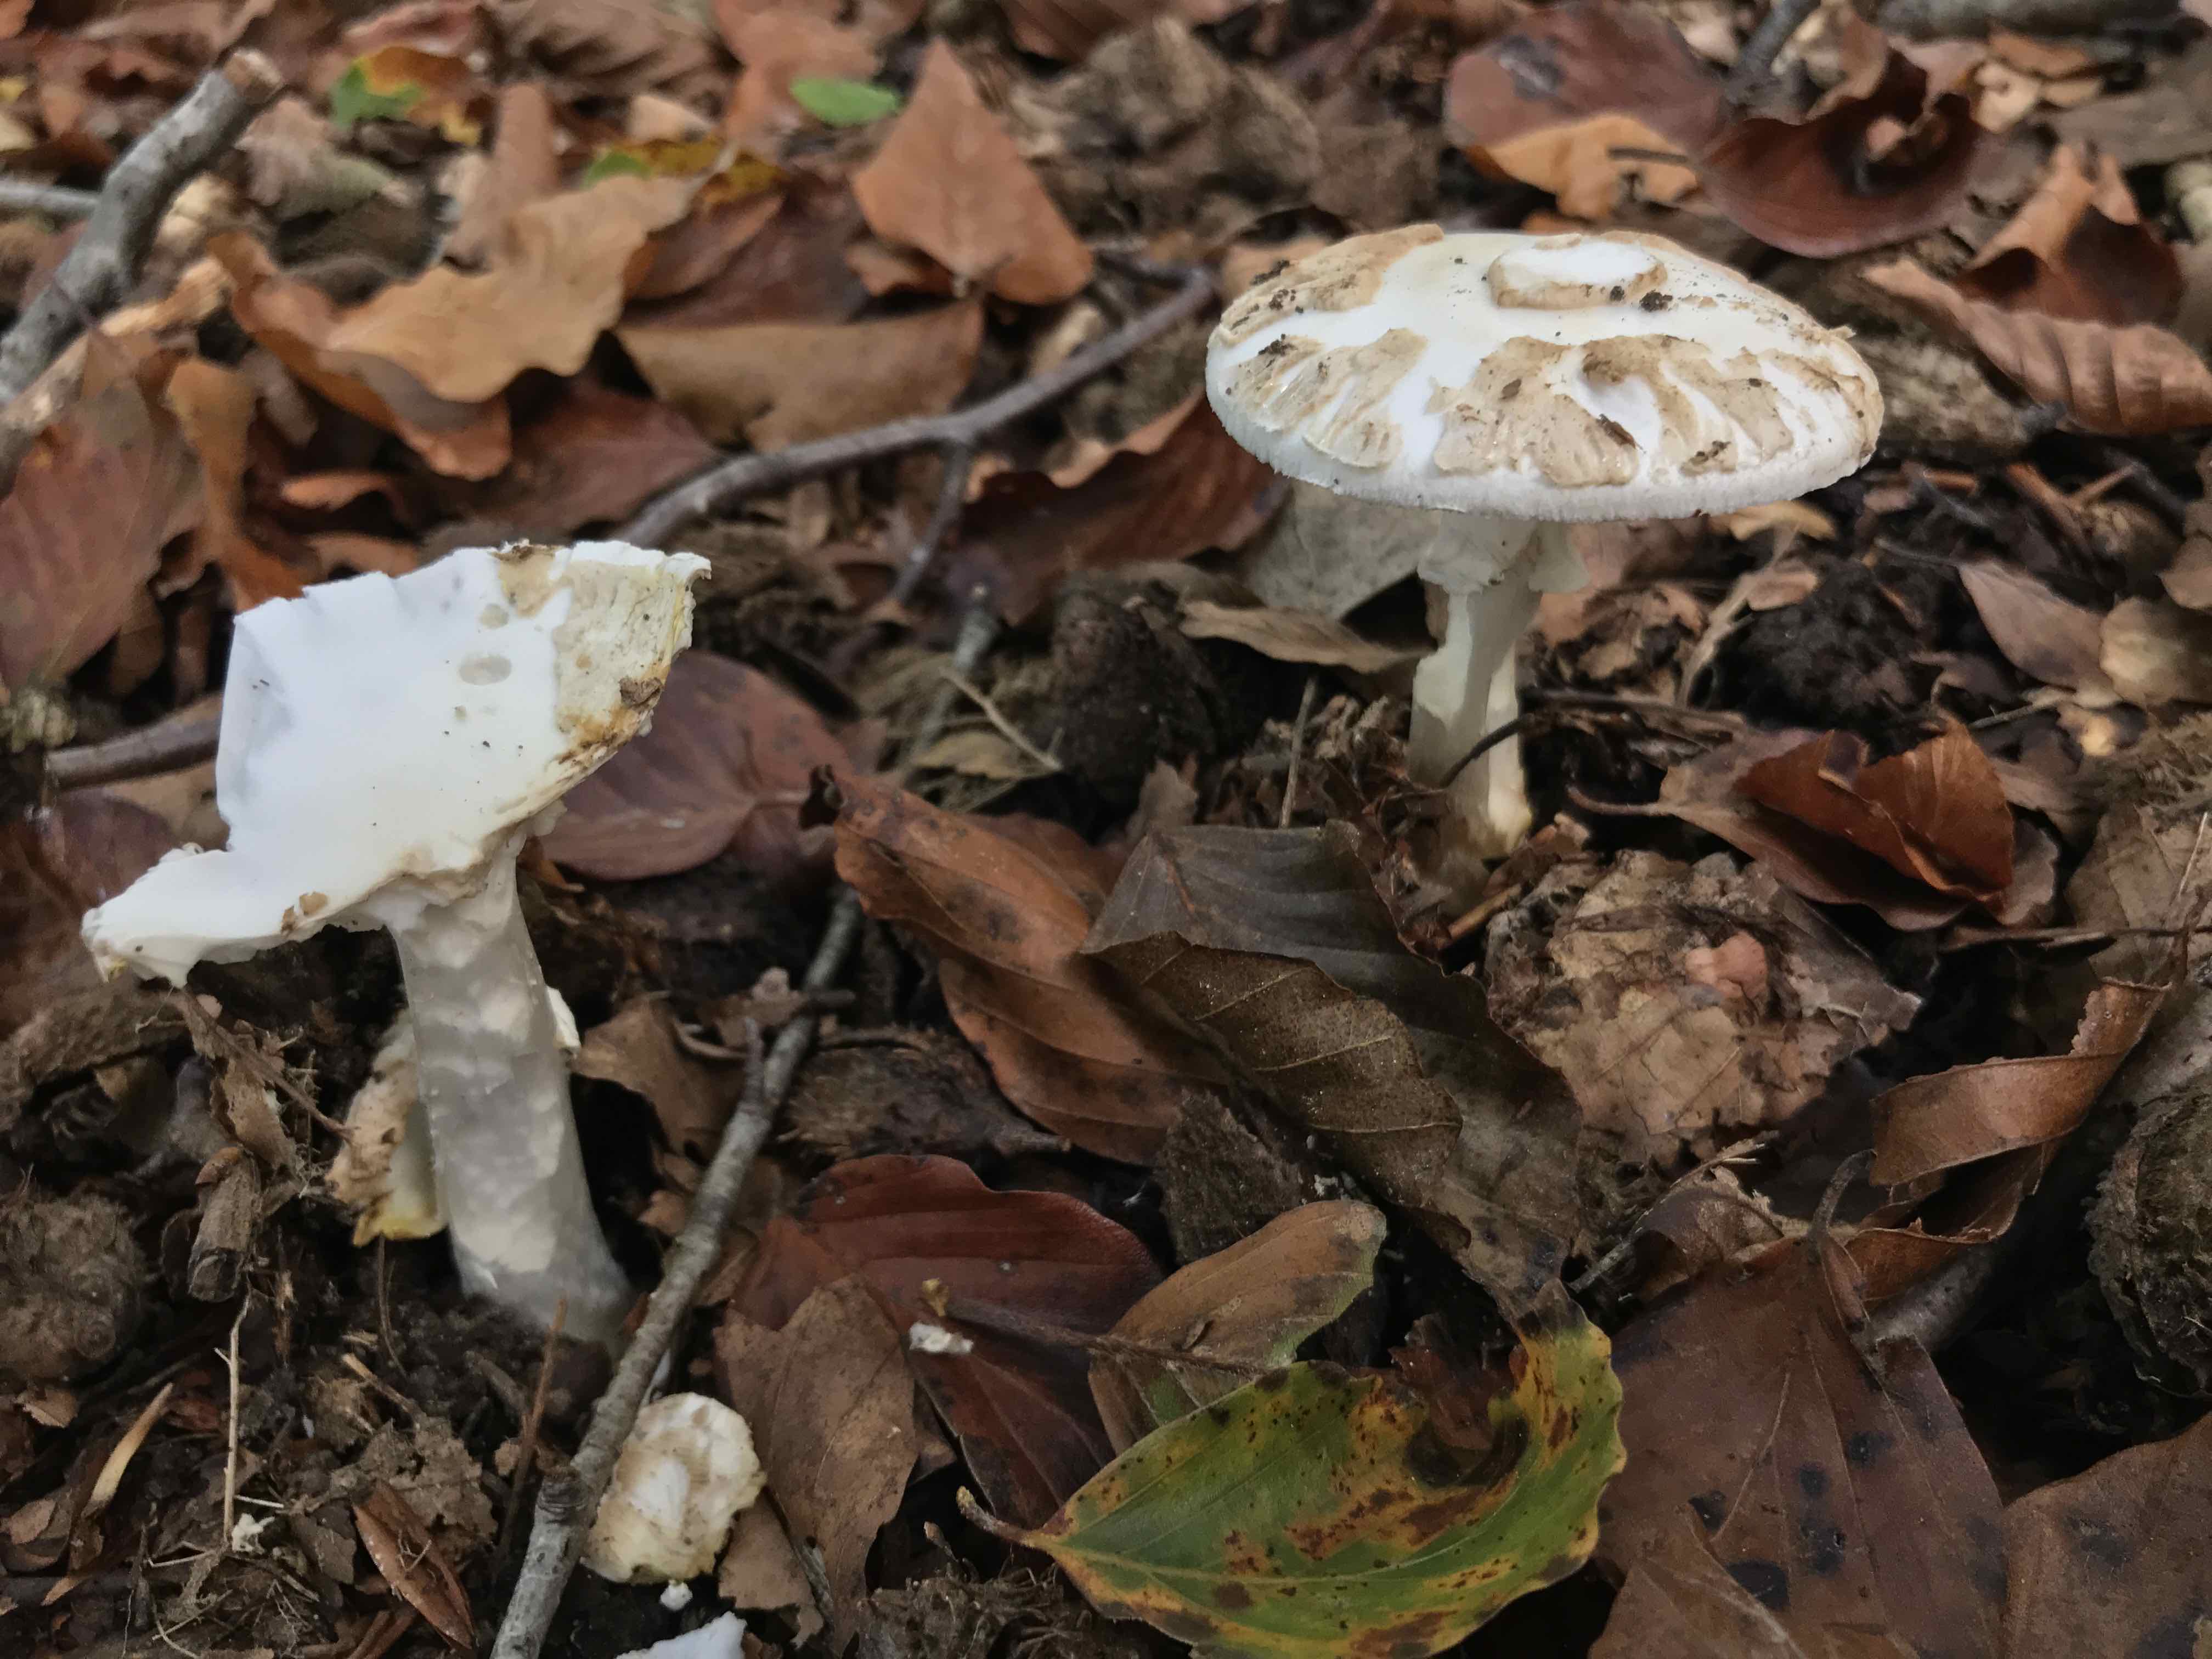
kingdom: Fungi
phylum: Basidiomycota
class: Agaricomycetes
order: Agaricales
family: Amanitaceae
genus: Amanita
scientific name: Amanita citrina
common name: kugleknoldet fluesvamp
